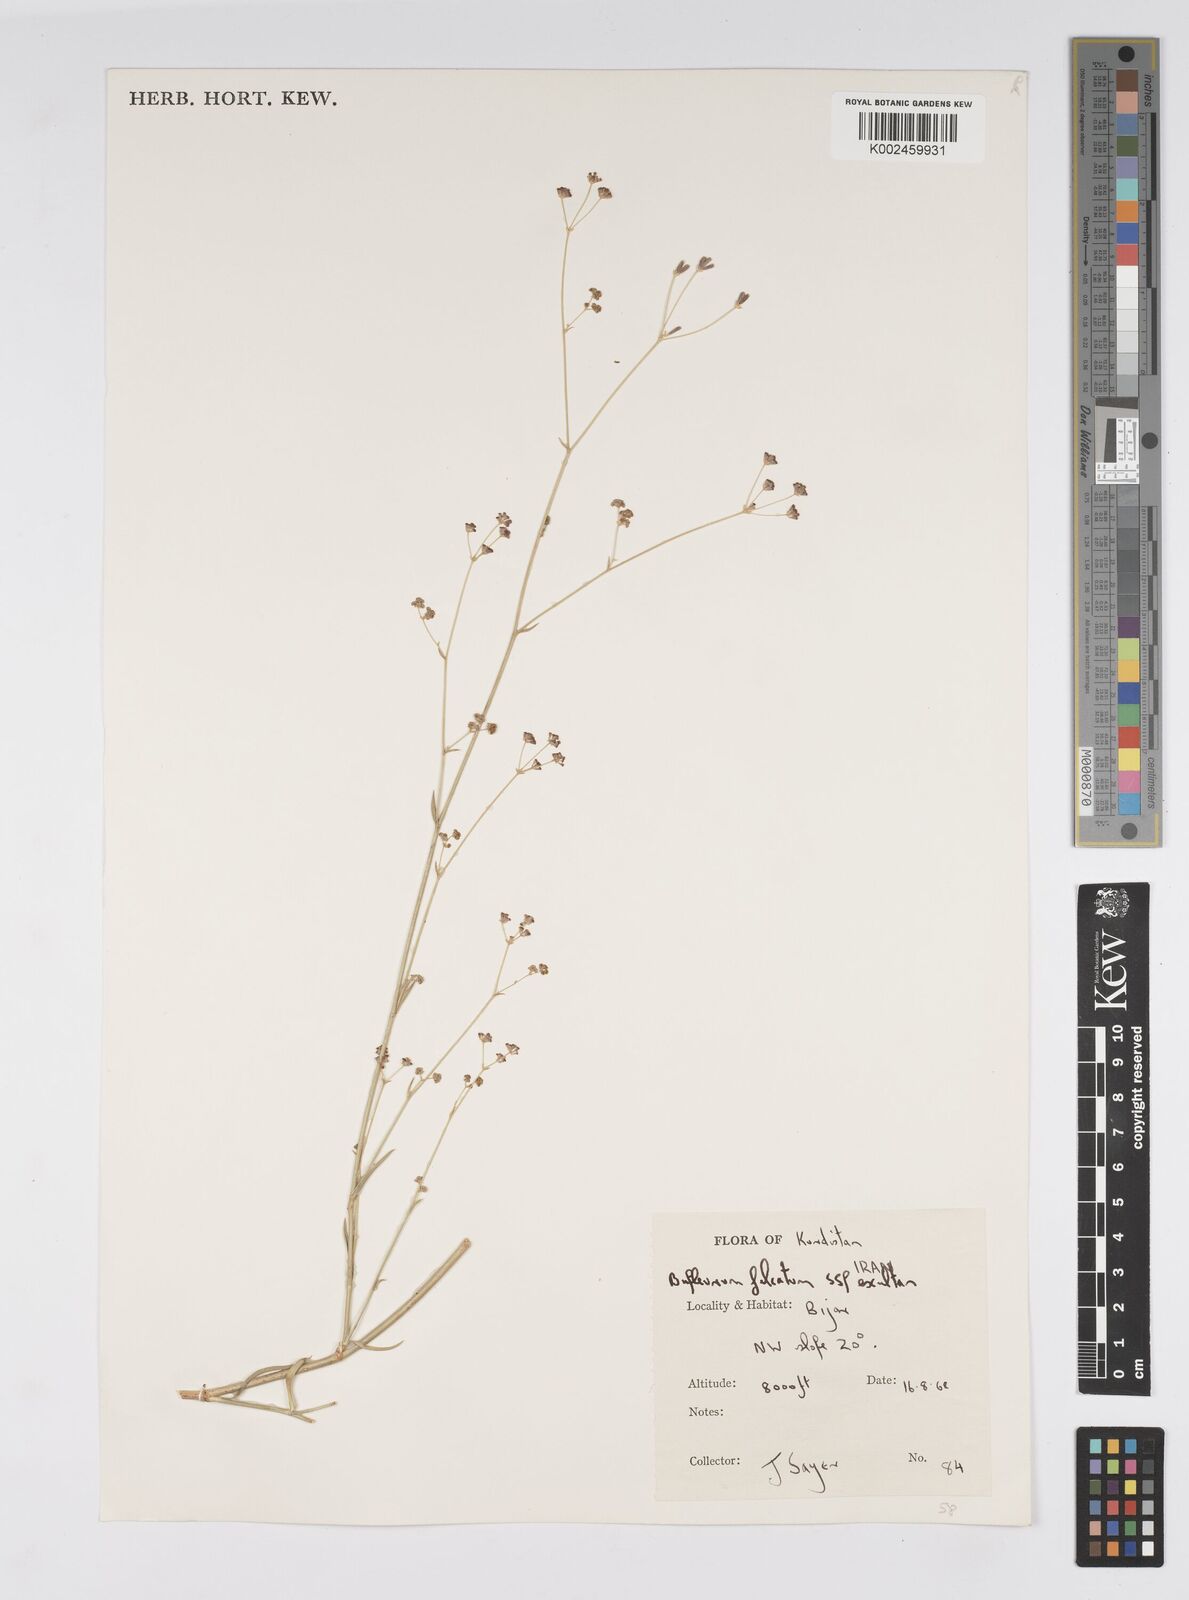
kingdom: Plantae
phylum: Tracheophyta
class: Magnoliopsida
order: Apiales
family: Apiaceae
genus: Bupleurum
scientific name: Bupleurum falcatum
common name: Sickle-leaved hare's-ear
